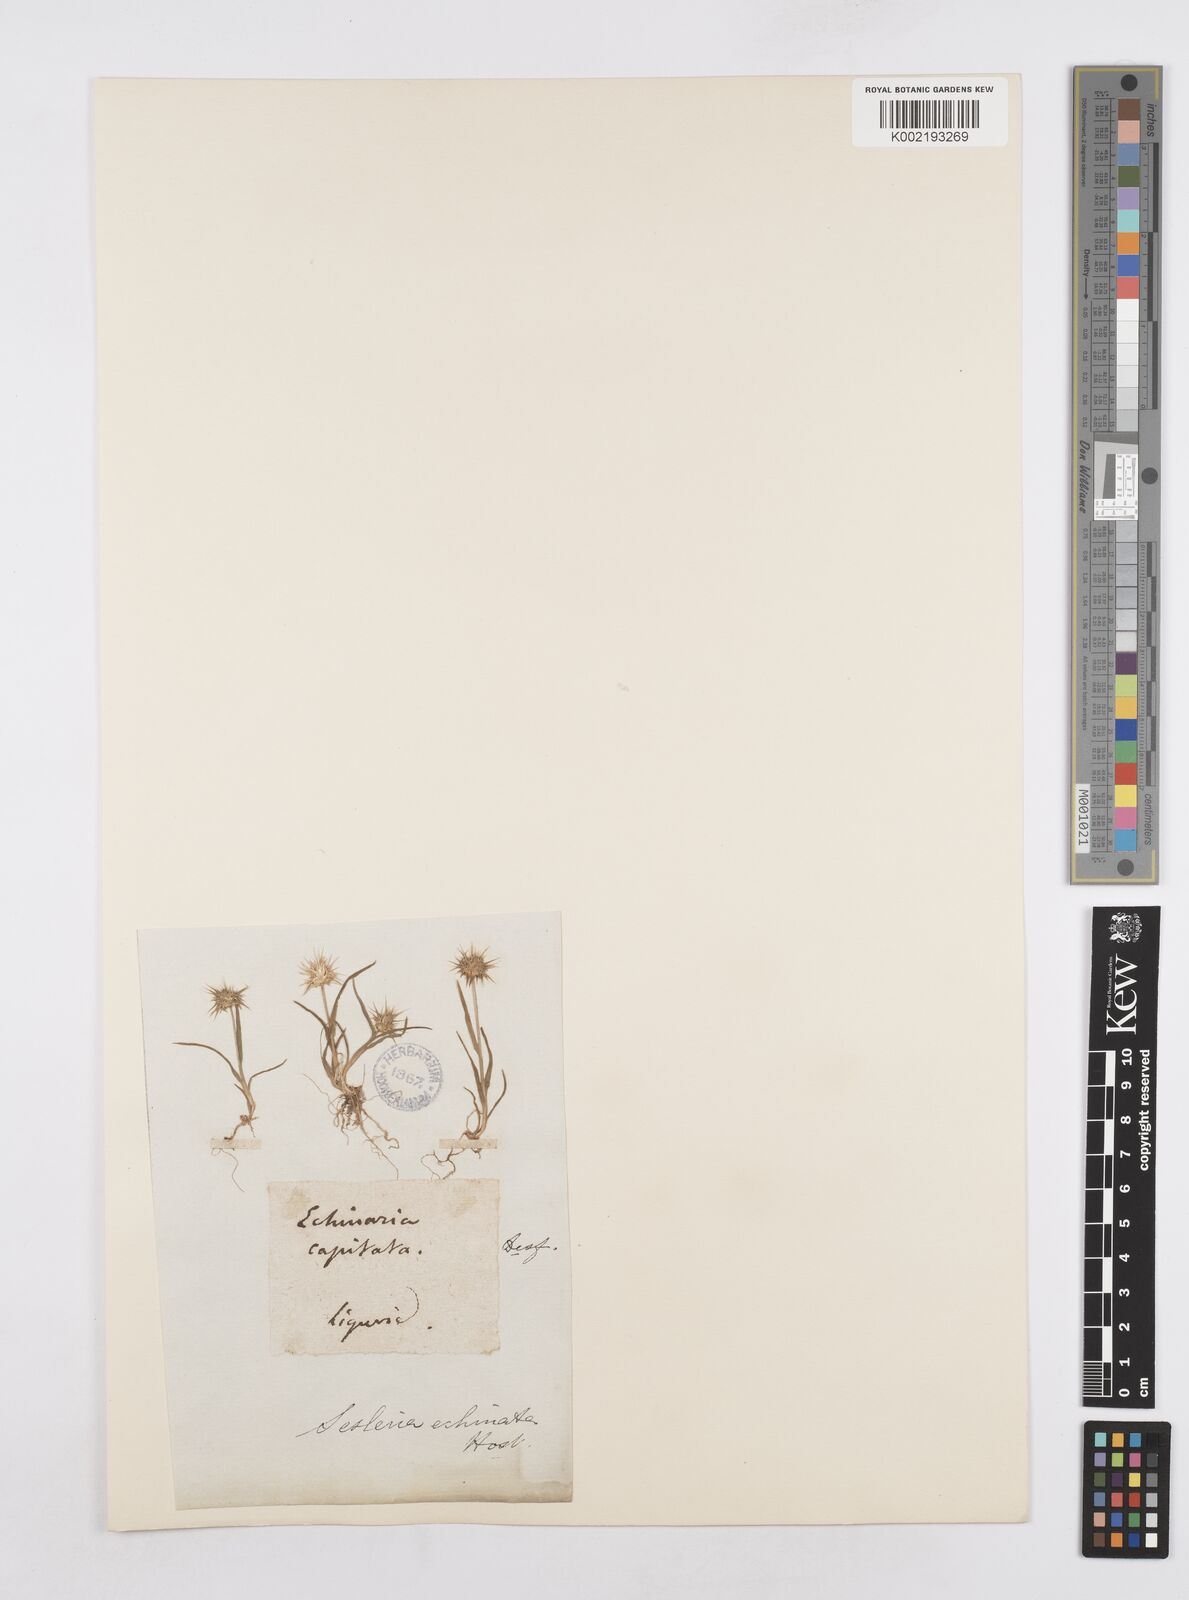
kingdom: Plantae
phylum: Tracheophyta
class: Liliopsida
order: Poales
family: Poaceae
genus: Echinaria
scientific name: Echinaria capitata
